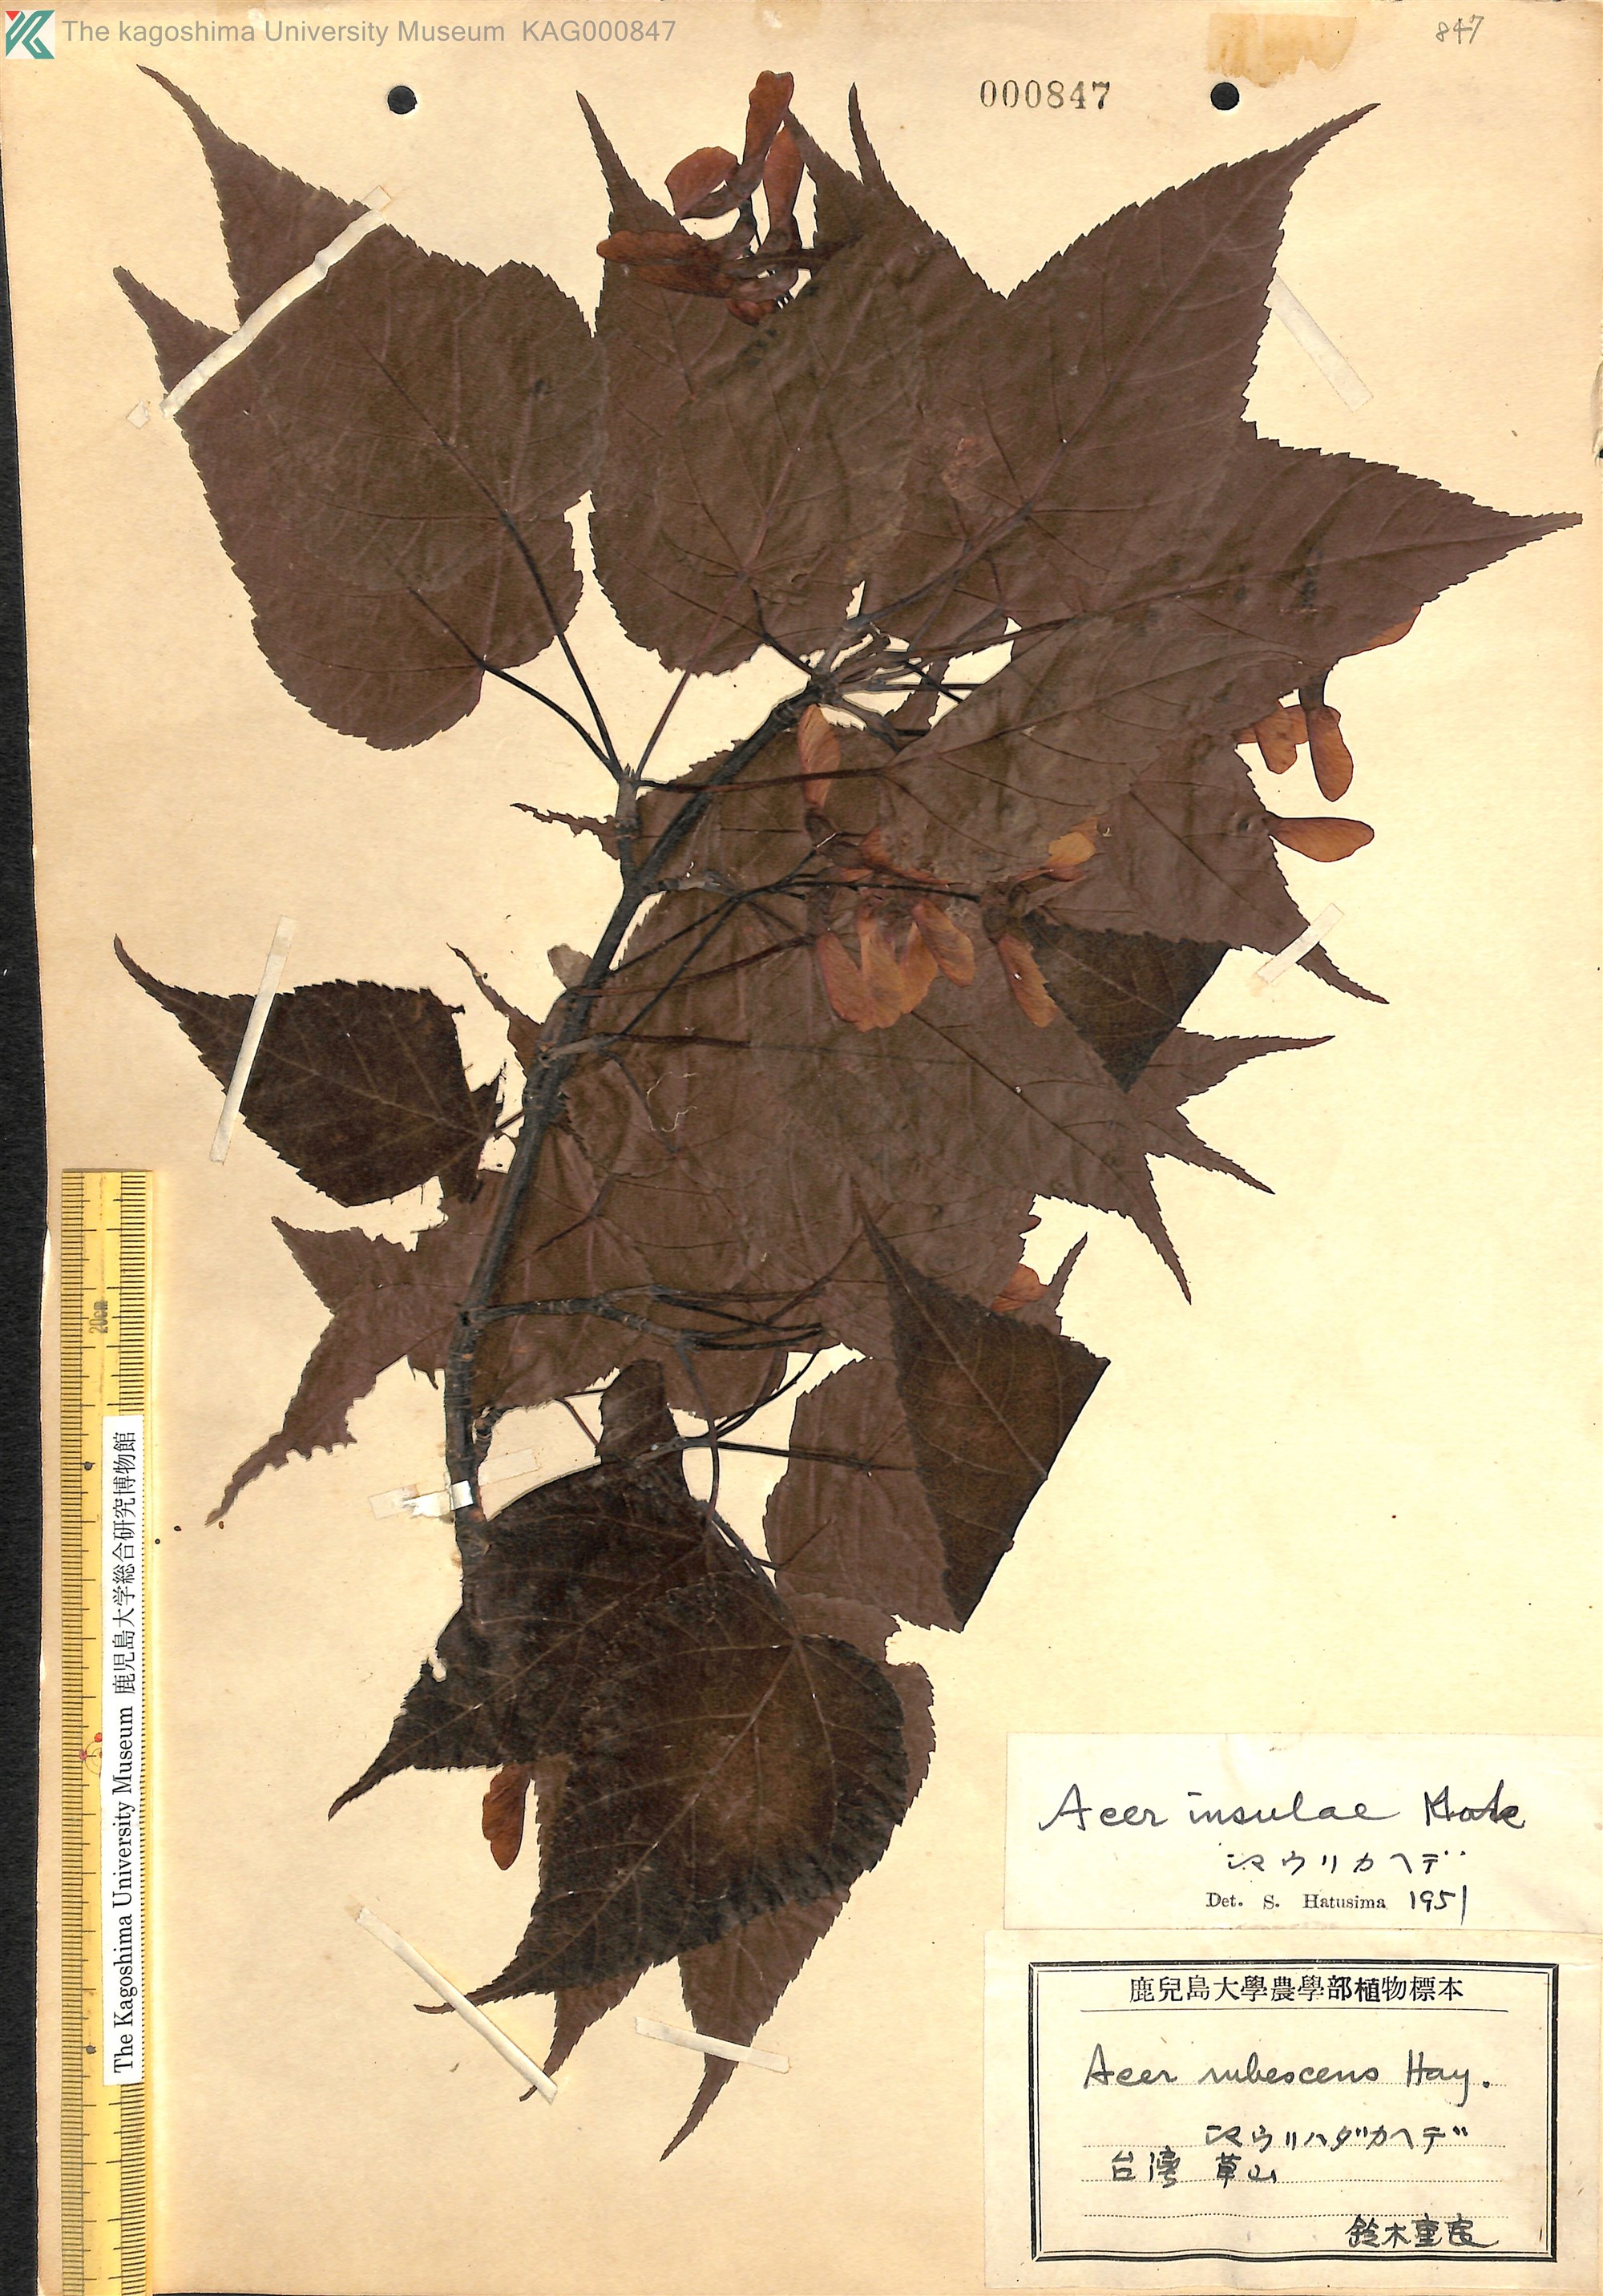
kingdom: Plantae
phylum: Tracheophyta
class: Magnoliopsida
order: Sapindales
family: Sapindaceae
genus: Acer
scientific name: Acer caudatifolium
